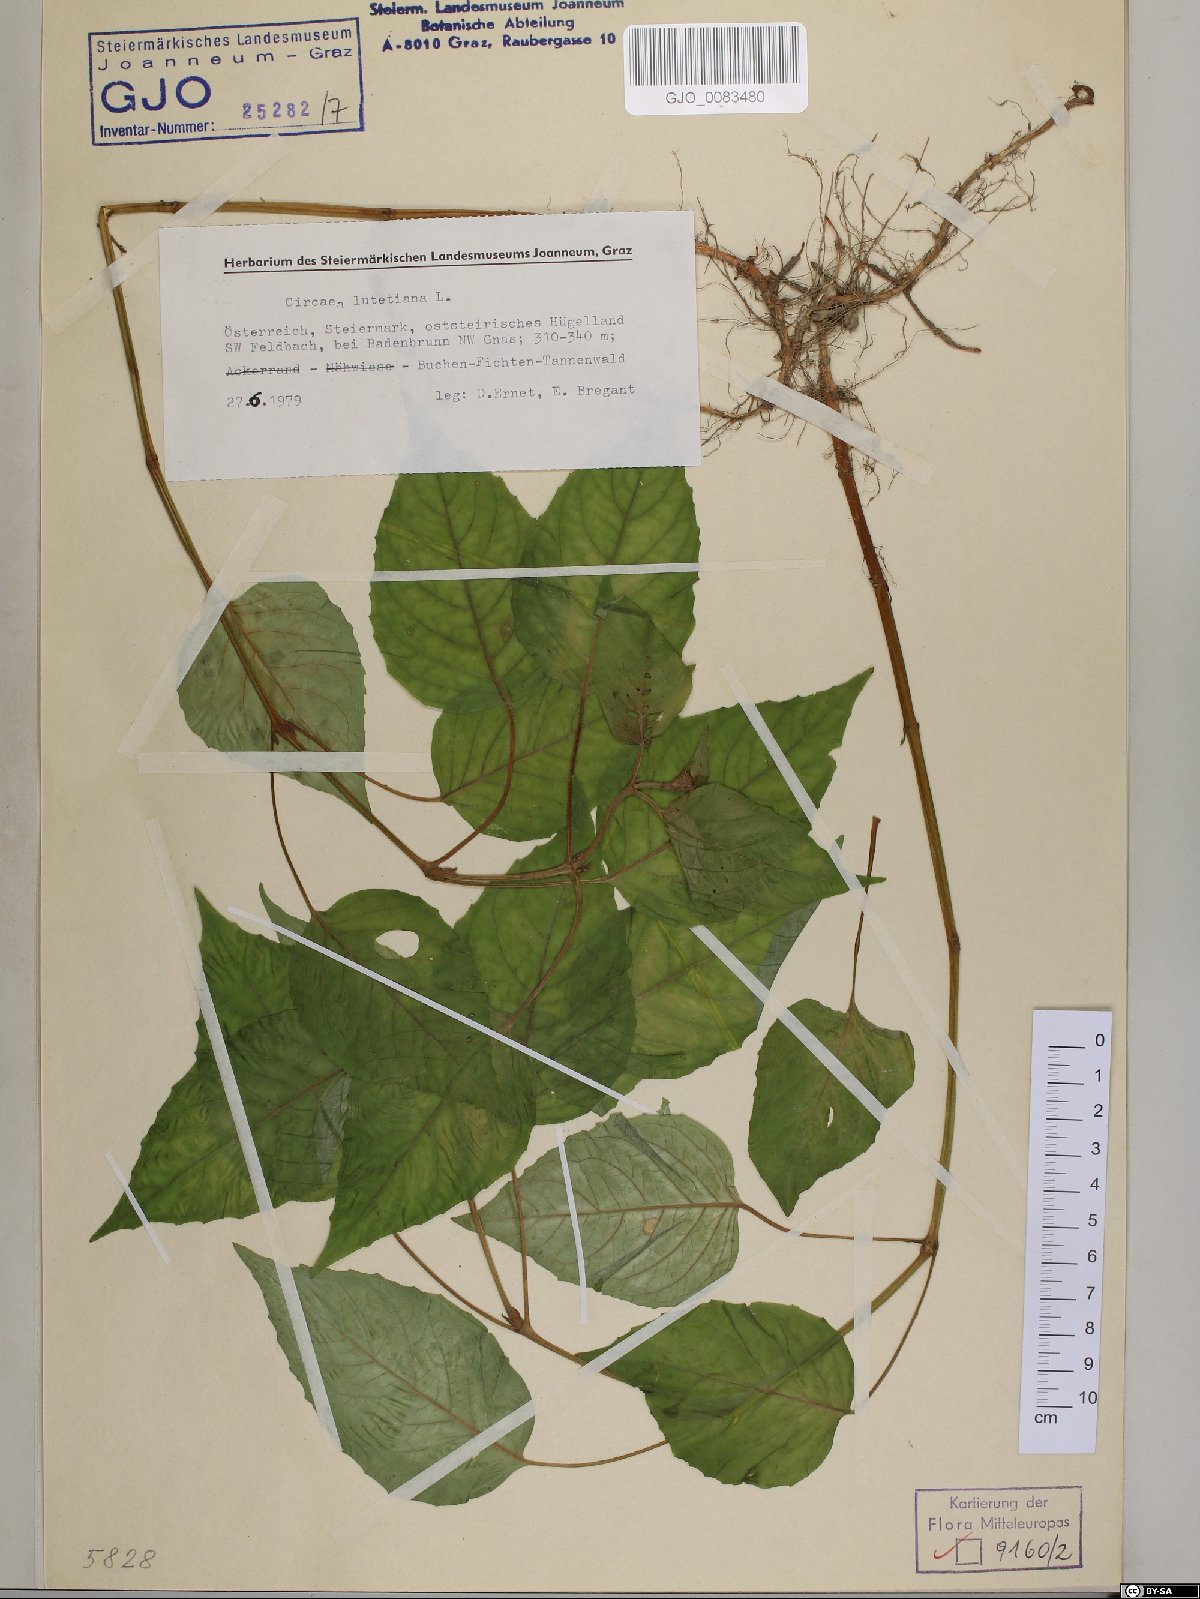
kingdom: Plantae
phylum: Tracheophyta
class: Magnoliopsida
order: Myrtales
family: Onagraceae
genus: Circaea
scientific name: Circaea lutetiana
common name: Enchanter's-nightshade
